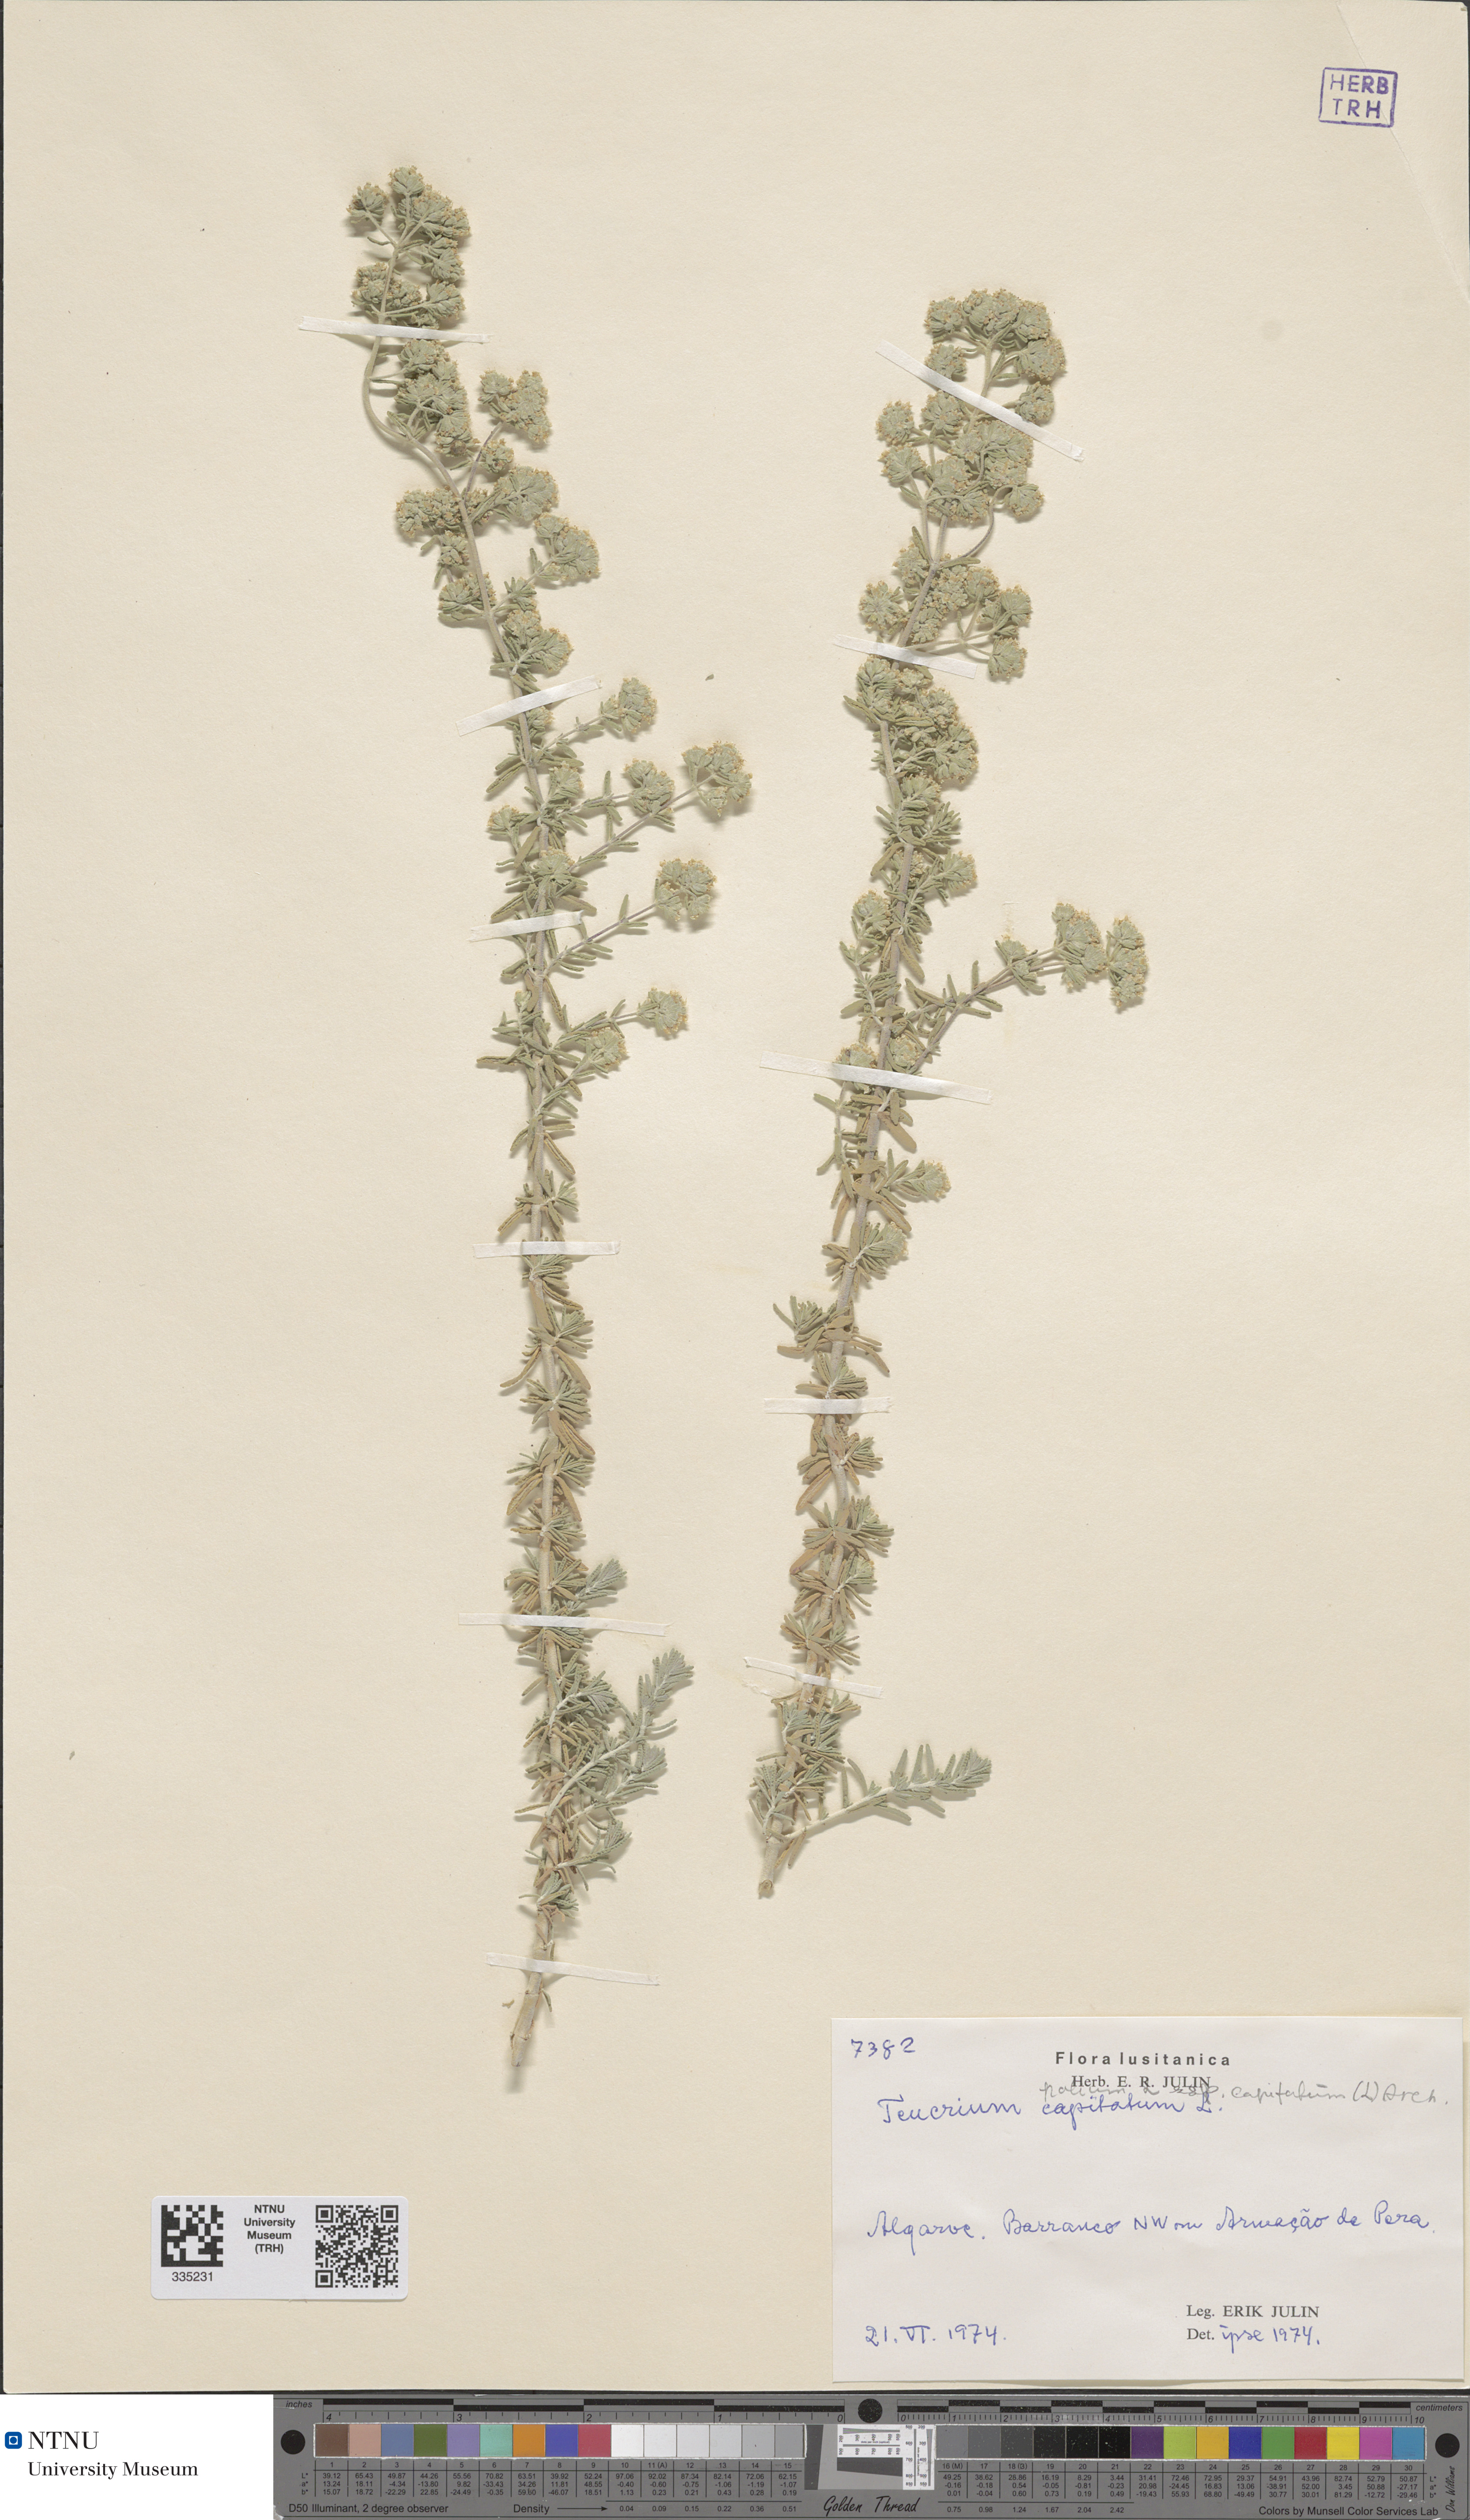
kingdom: Plantae
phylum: Tracheophyta
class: Magnoliopsida
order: Lamiales
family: Lamiaceae
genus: Teucrium
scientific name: Teucrium polium
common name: Poley
